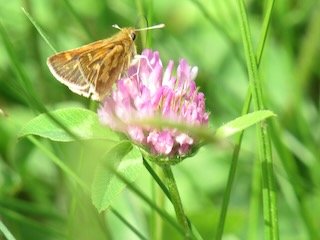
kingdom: Animalia
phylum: Arthropoda
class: Insecta
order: Lepidoptera
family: Hesperiidae
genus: Polites
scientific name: Polites coras
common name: Peck's Skipper
